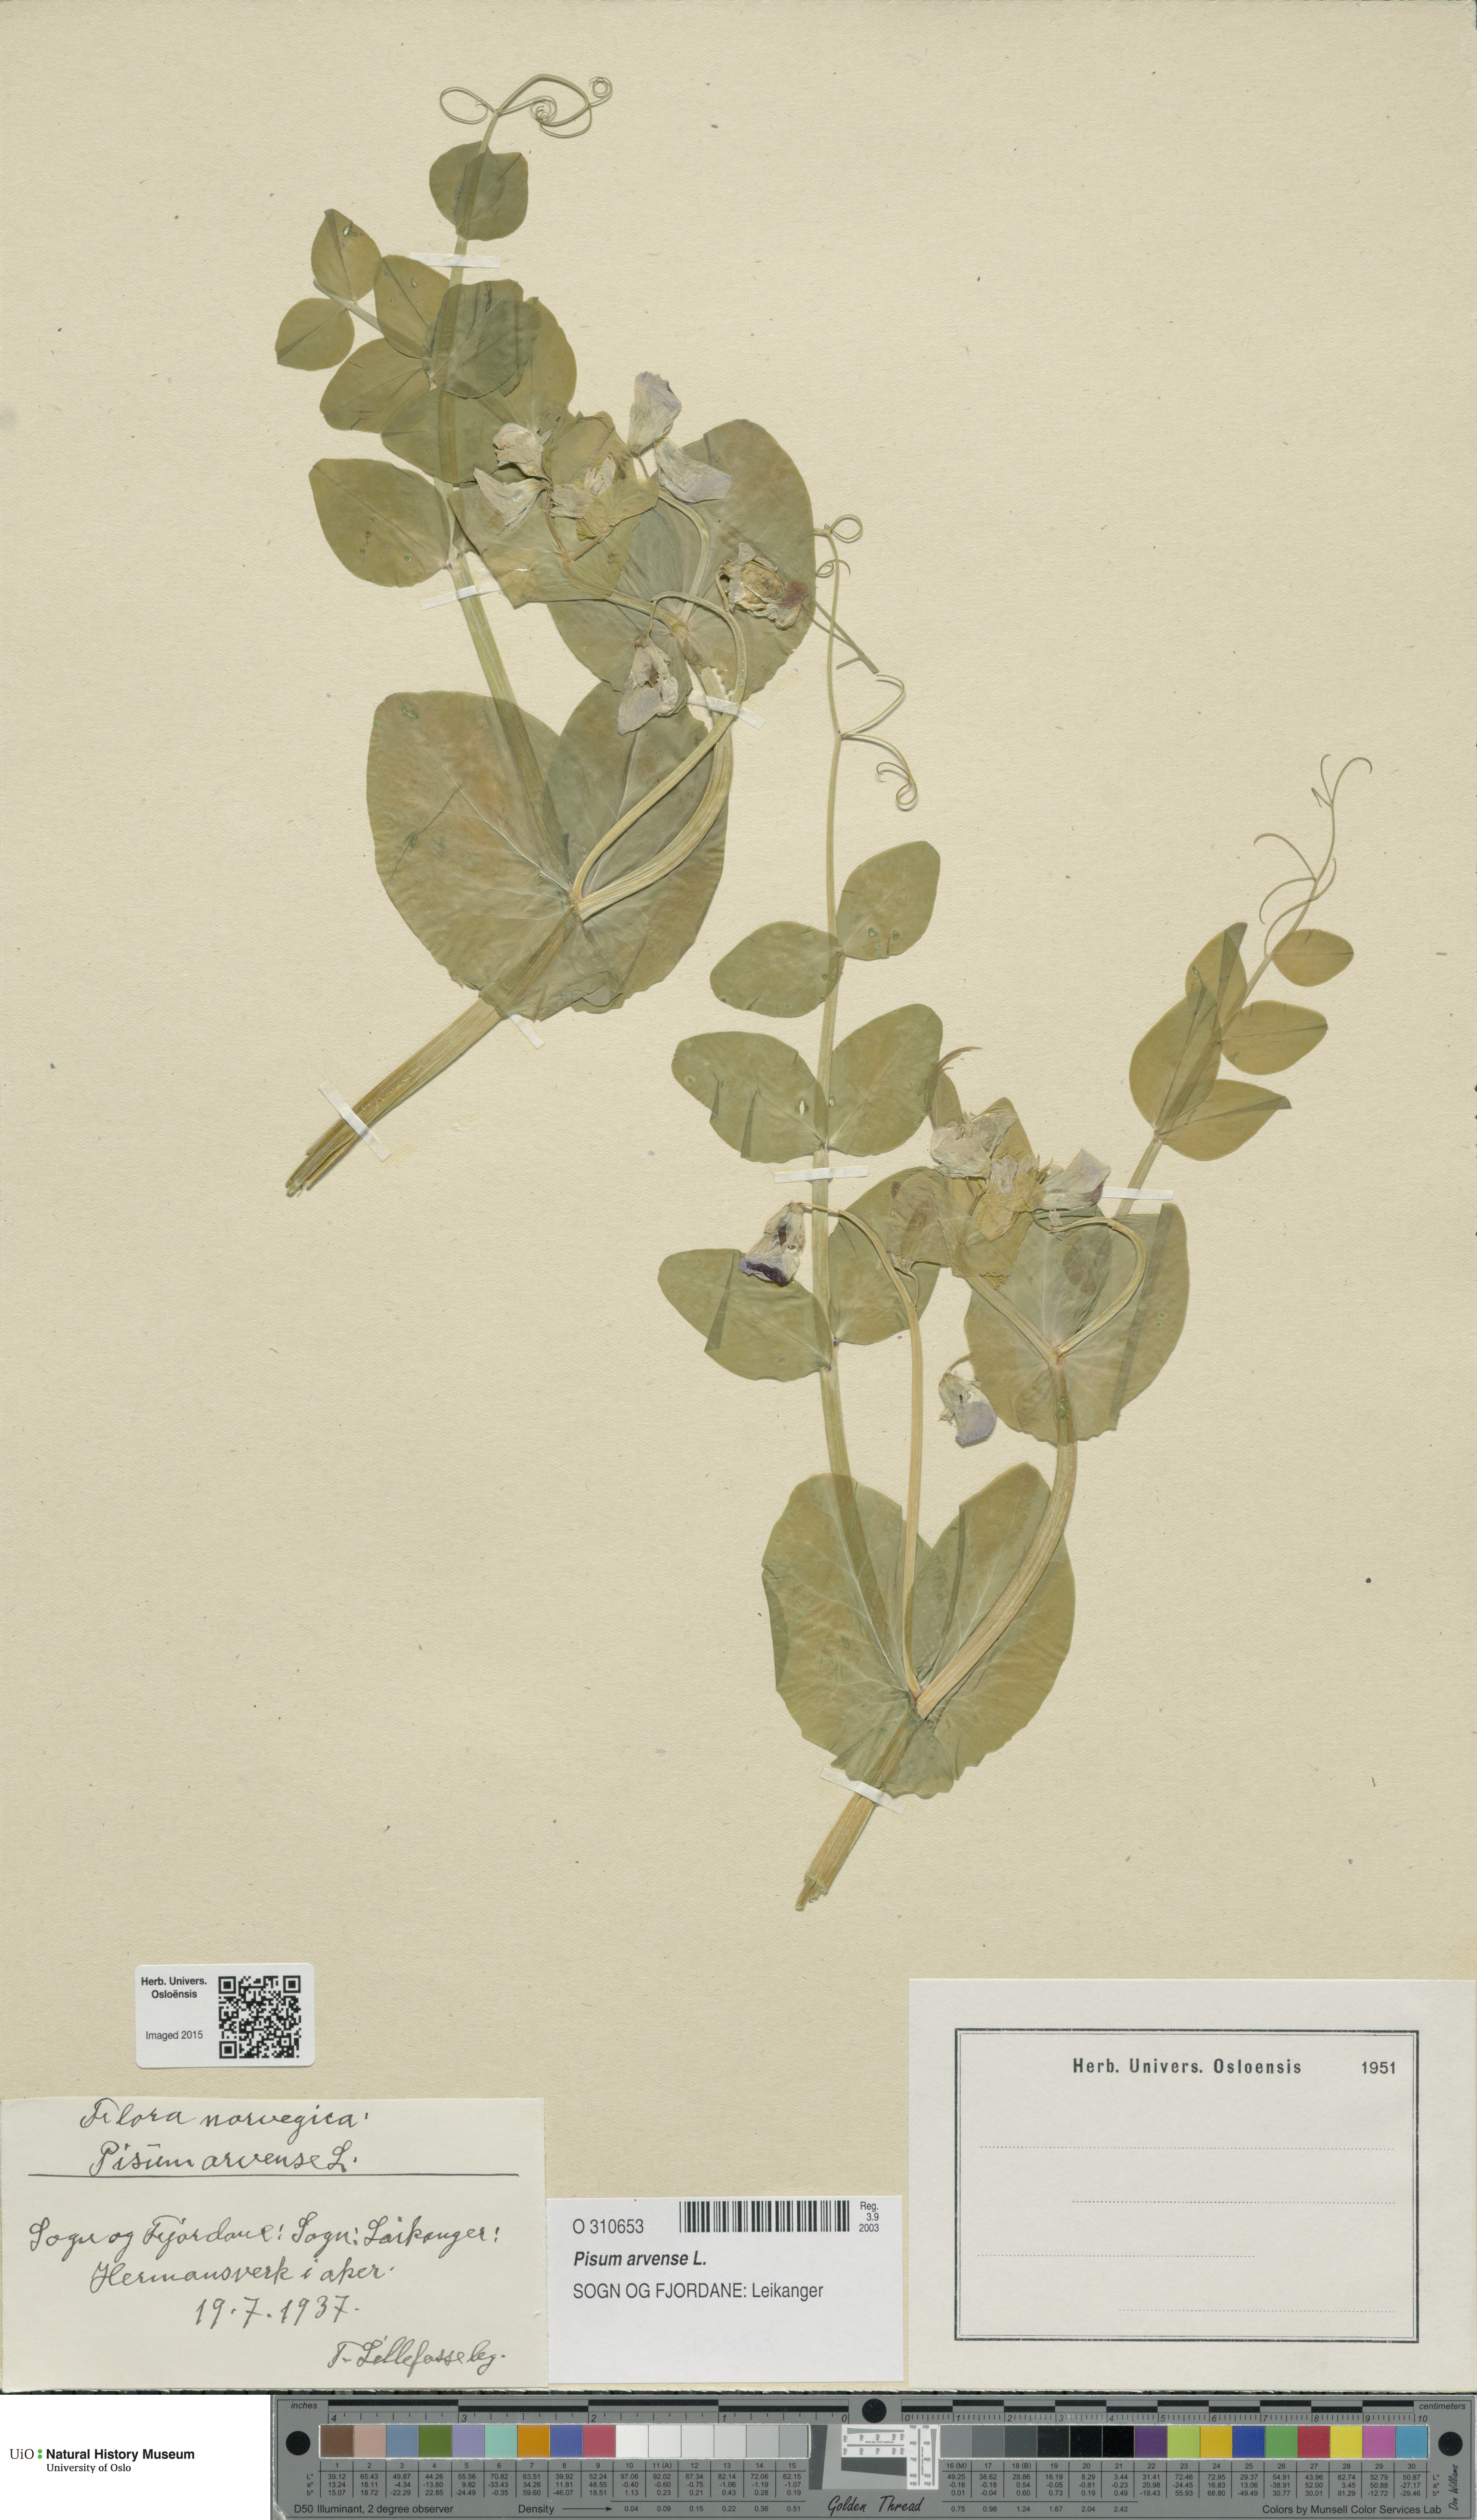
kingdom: Plantae
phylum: Tracheophyta
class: Magnoliopsida
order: Fabales
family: Fabaceae
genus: Lathyrus
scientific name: Lathyrus oleraceus
